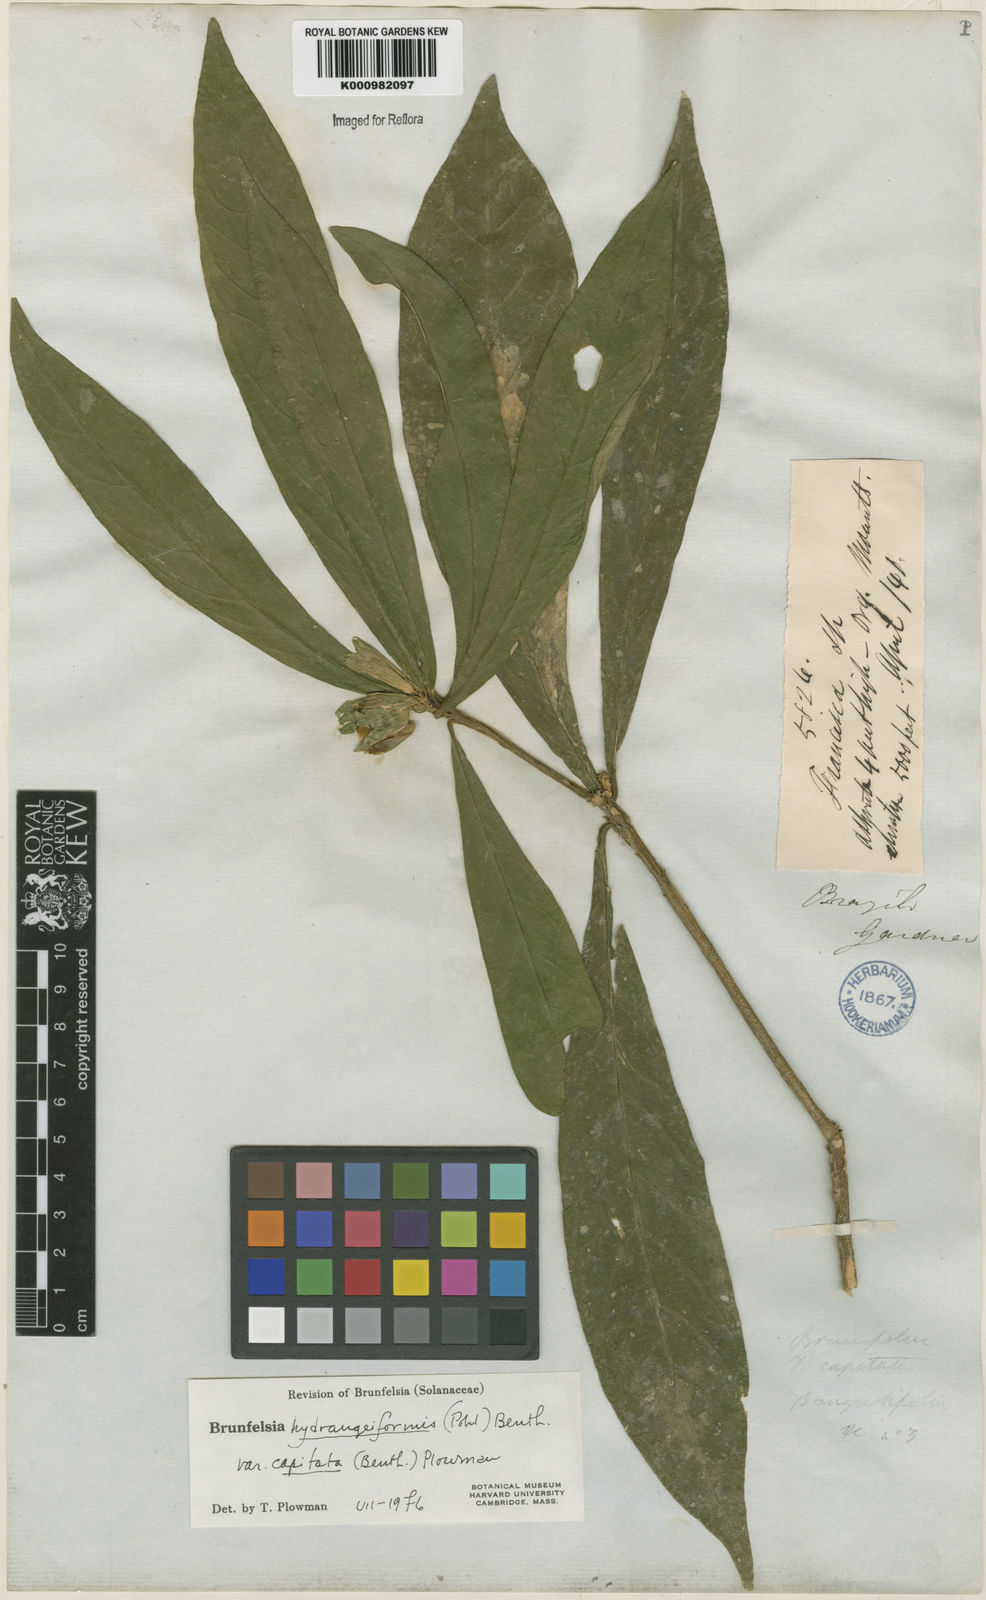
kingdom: Plantae
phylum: Tracheophyta
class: Magnoliopsida
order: Solanales
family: Solanaceae
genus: Brunfelsia
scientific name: Brunfelsia hydrangeiformis
